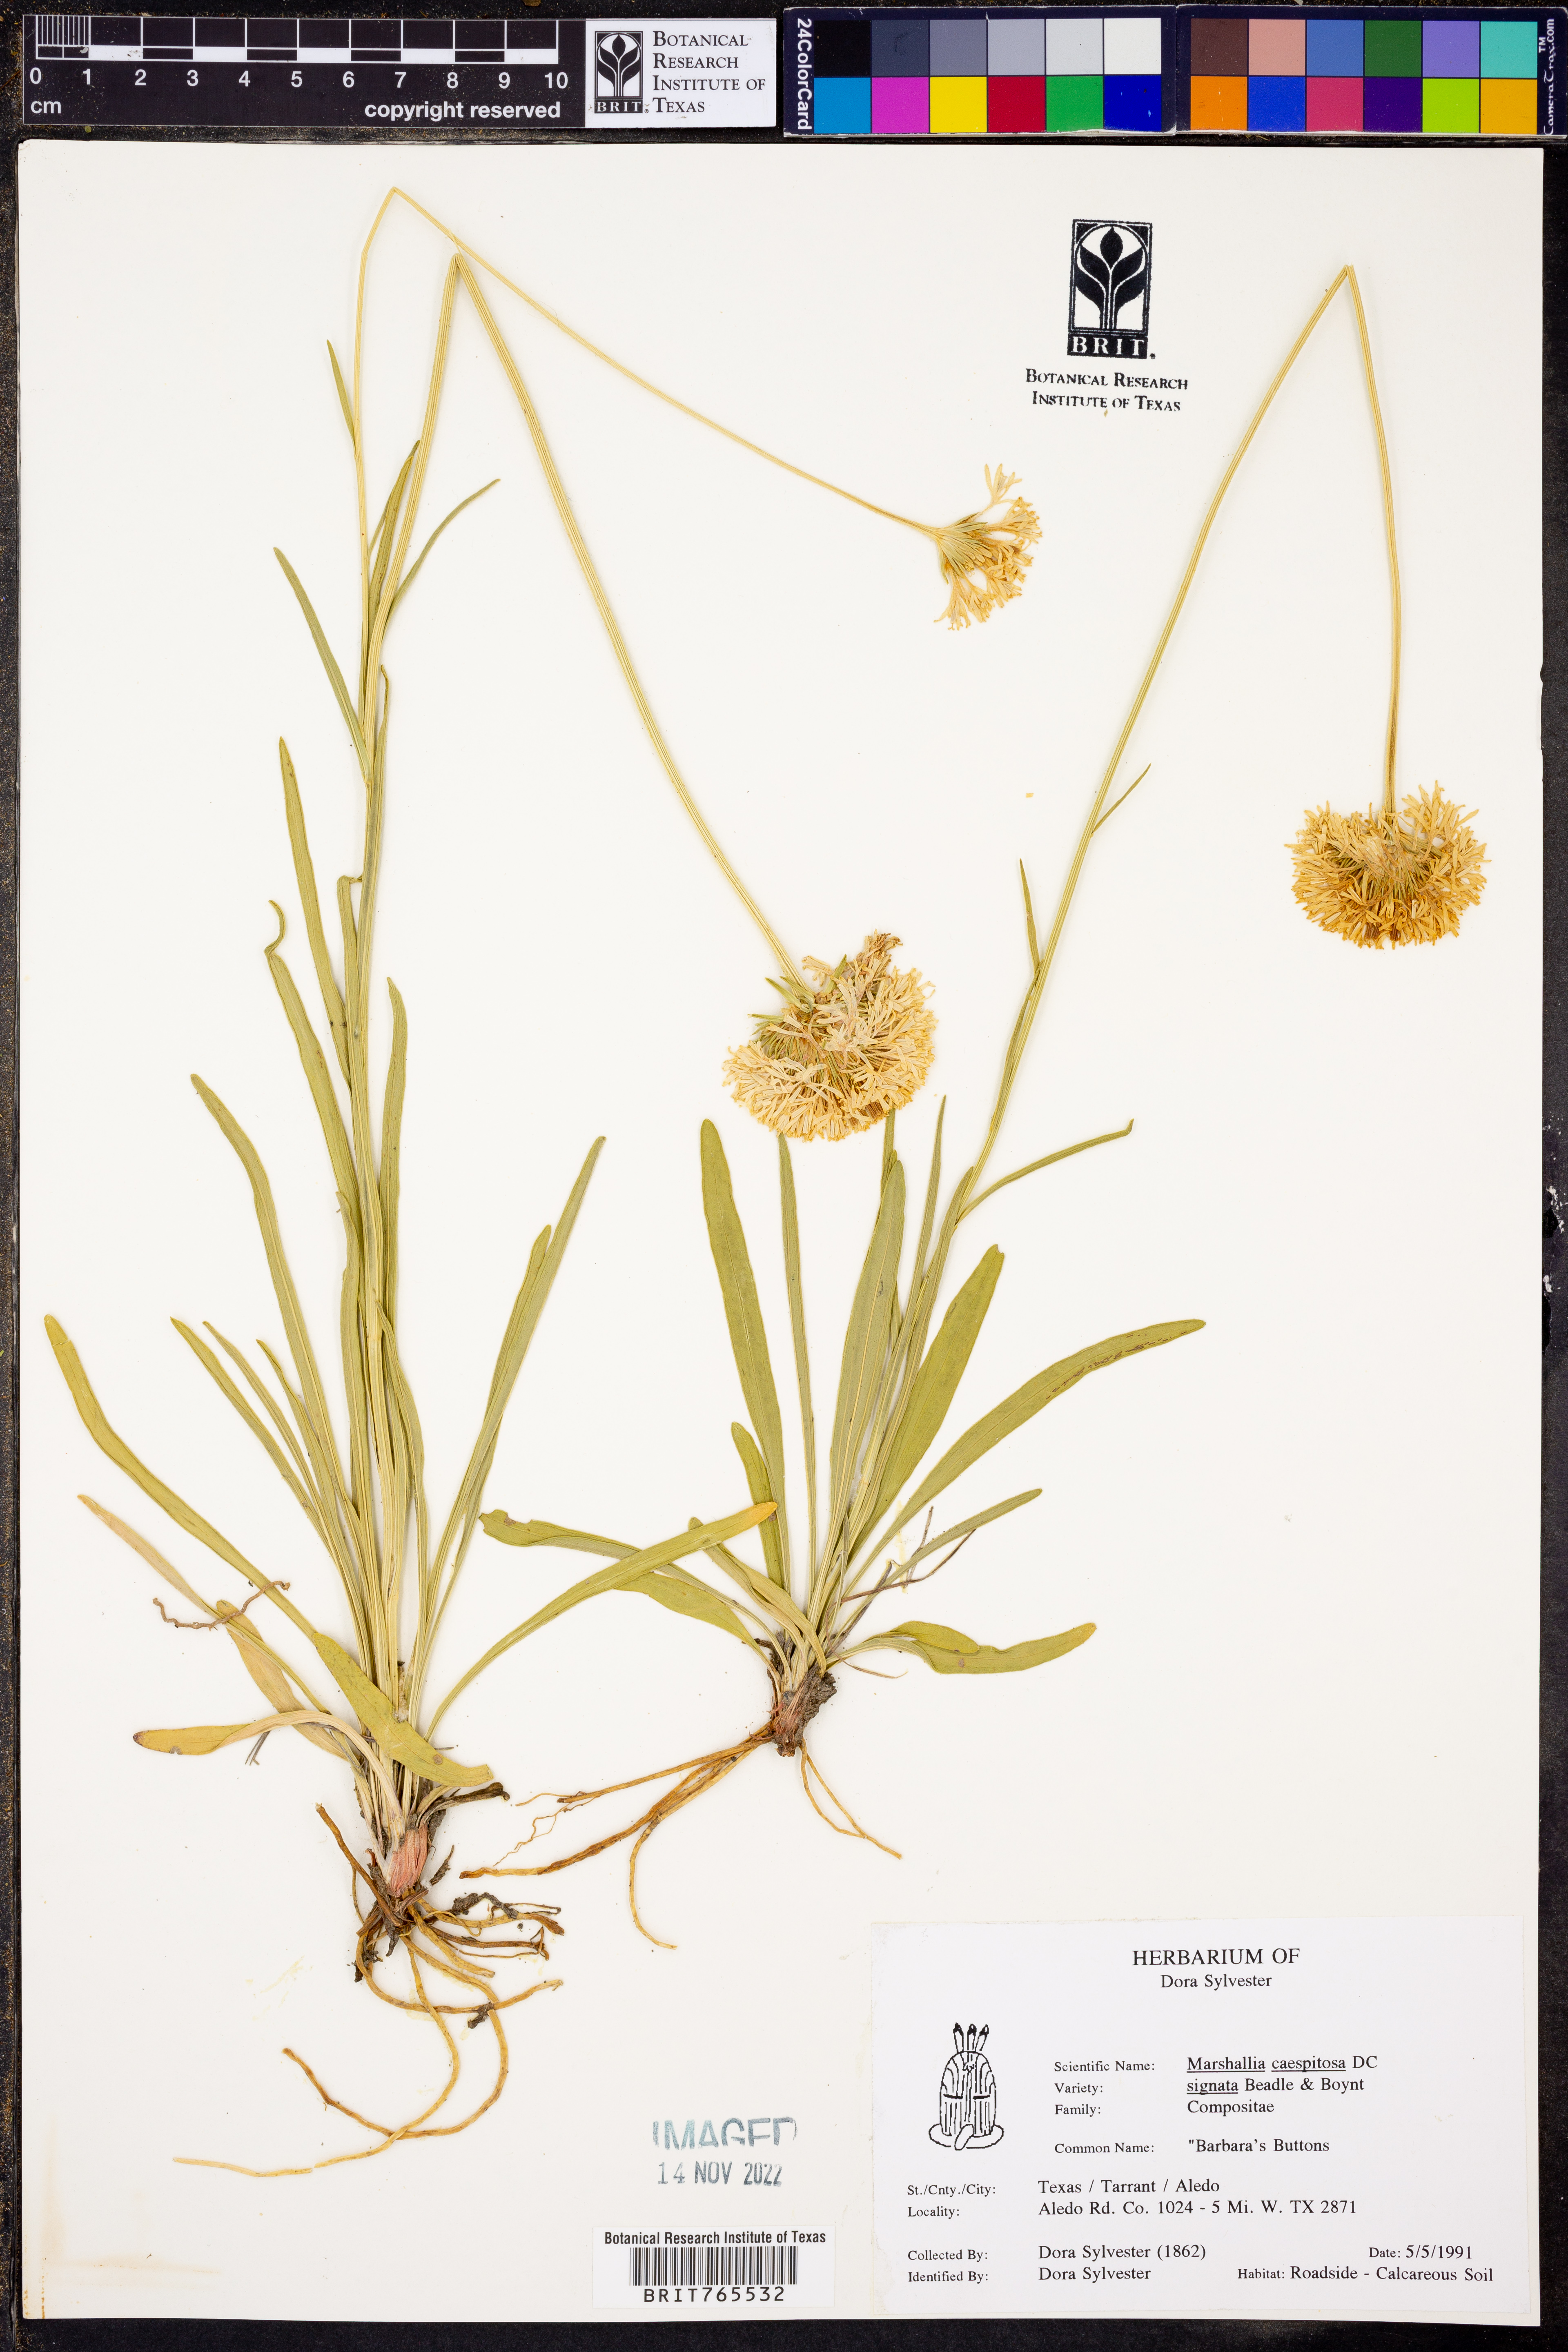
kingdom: Plantae
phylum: Tracheophyta
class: Magnoliopsida
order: Asterales
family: Asteraceae
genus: Marshallia
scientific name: Marshallia caespitosa
